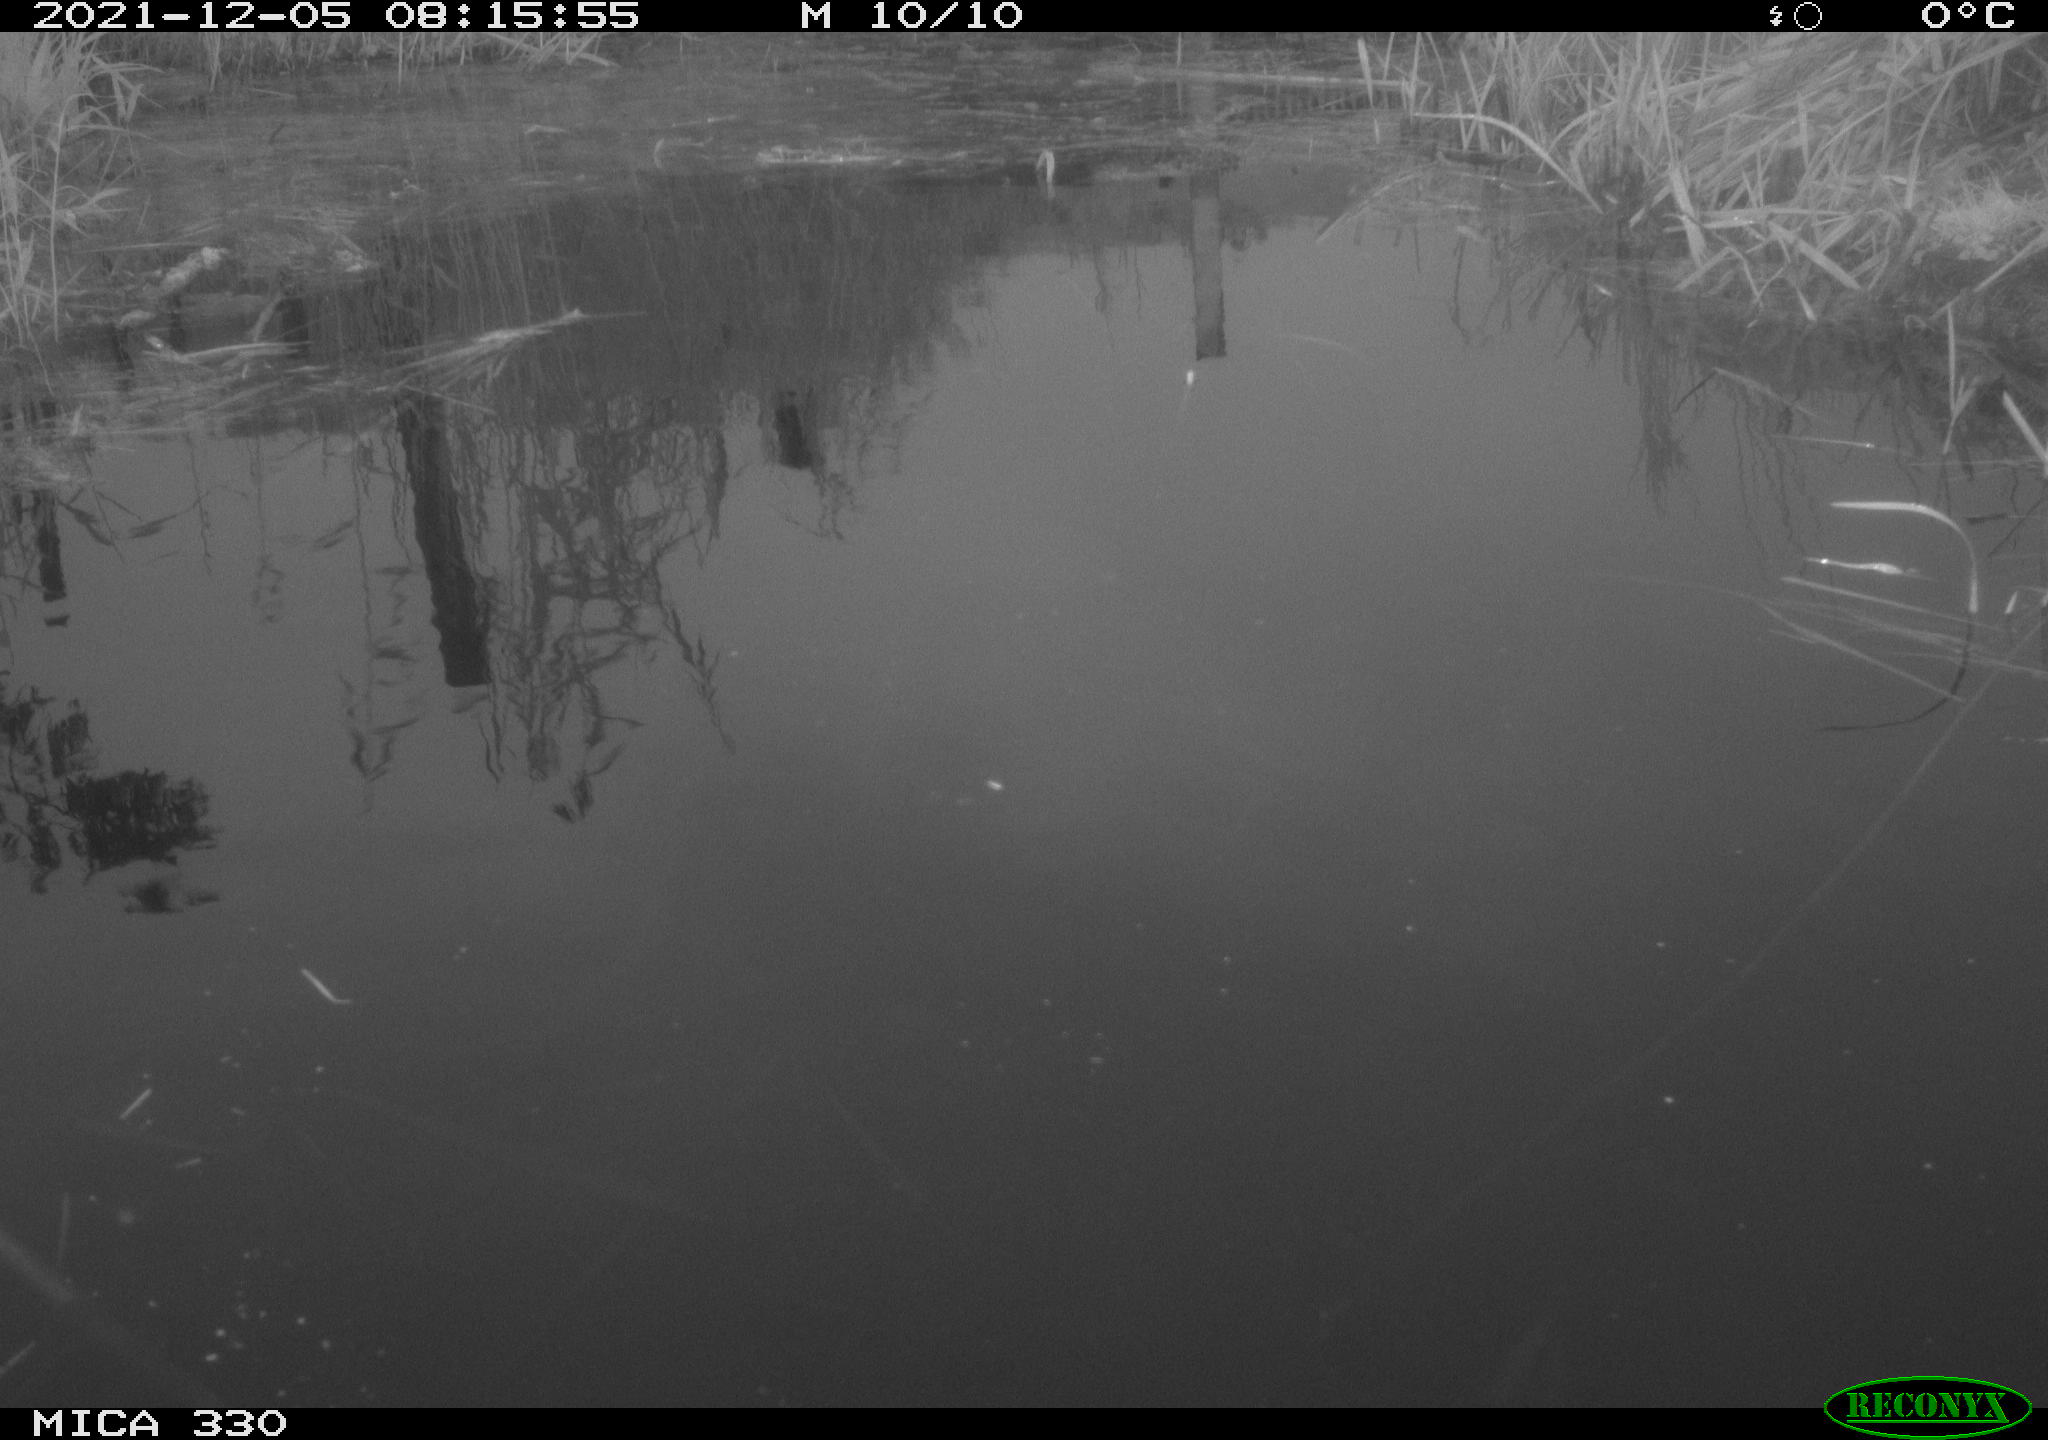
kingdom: Animalia
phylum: Chordata
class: Aves
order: Gruiformes
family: Rallidae
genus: Gallinula
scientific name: Gallinula chloropus
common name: Common moorhen
